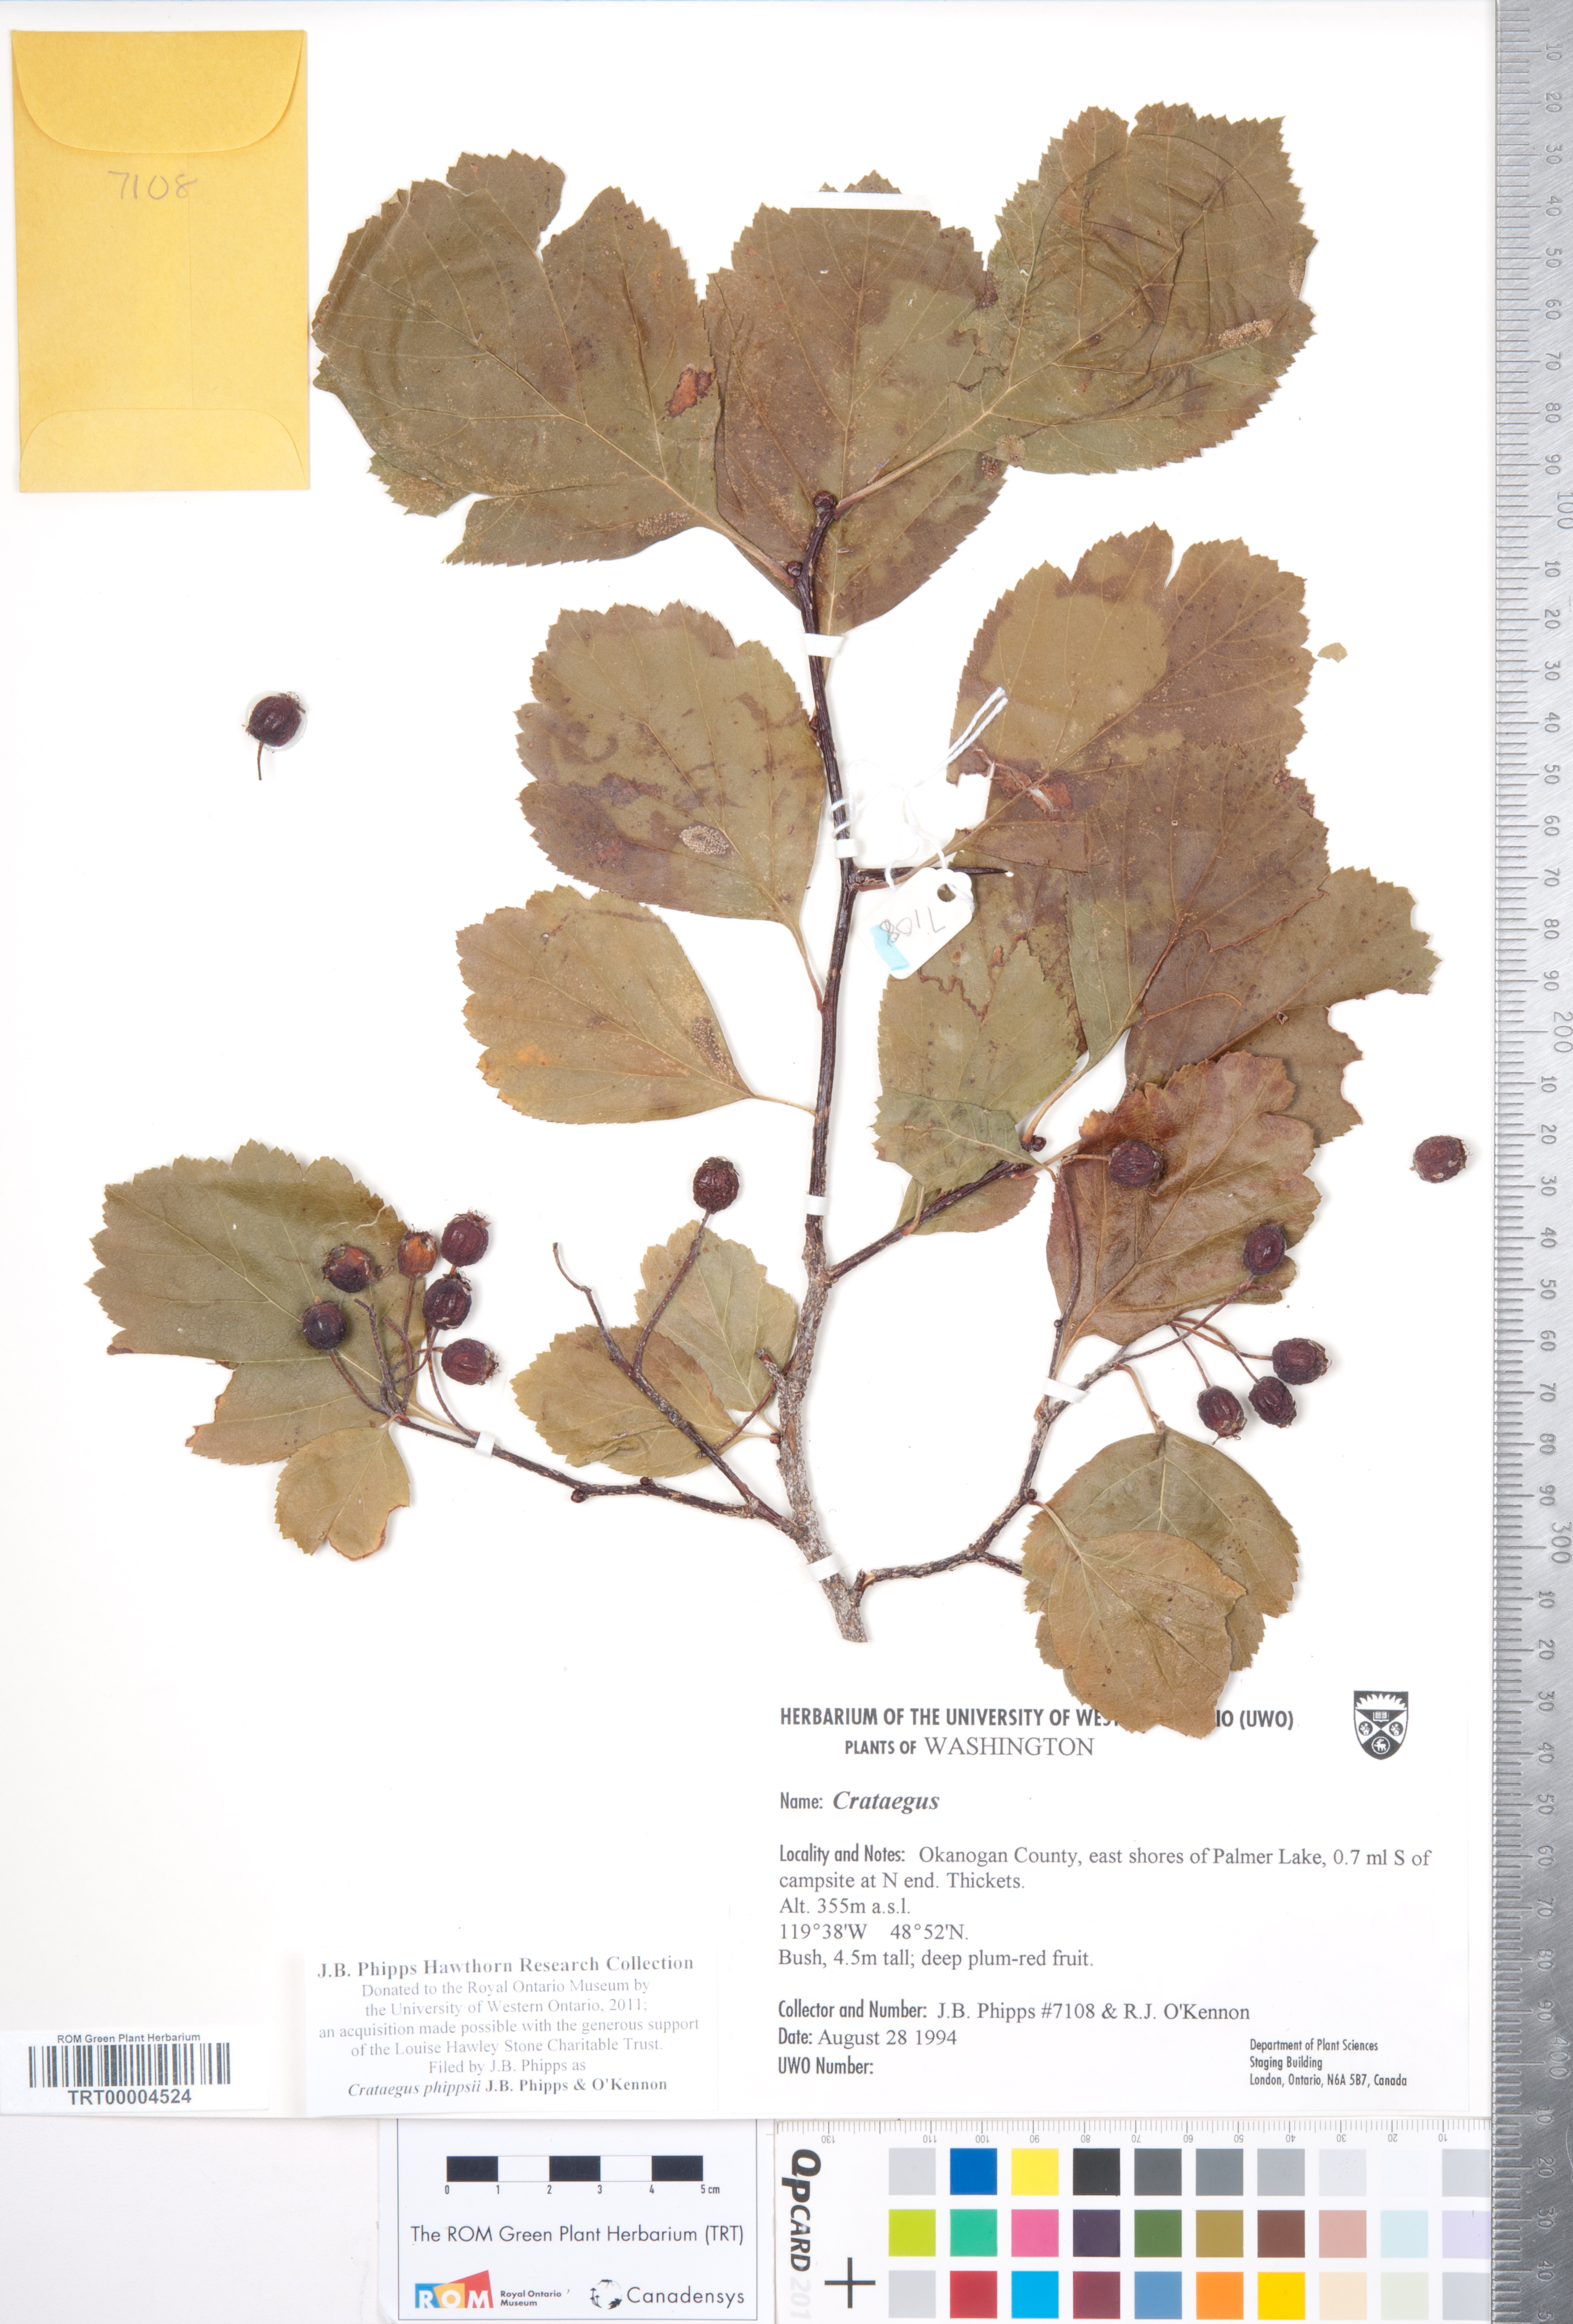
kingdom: Plantae
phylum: Tracheophyta
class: Magnoliopsida
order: Rosales
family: Rosaceae
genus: Crataegus
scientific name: Crataegus phippsii
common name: Phipps' hawthorn
